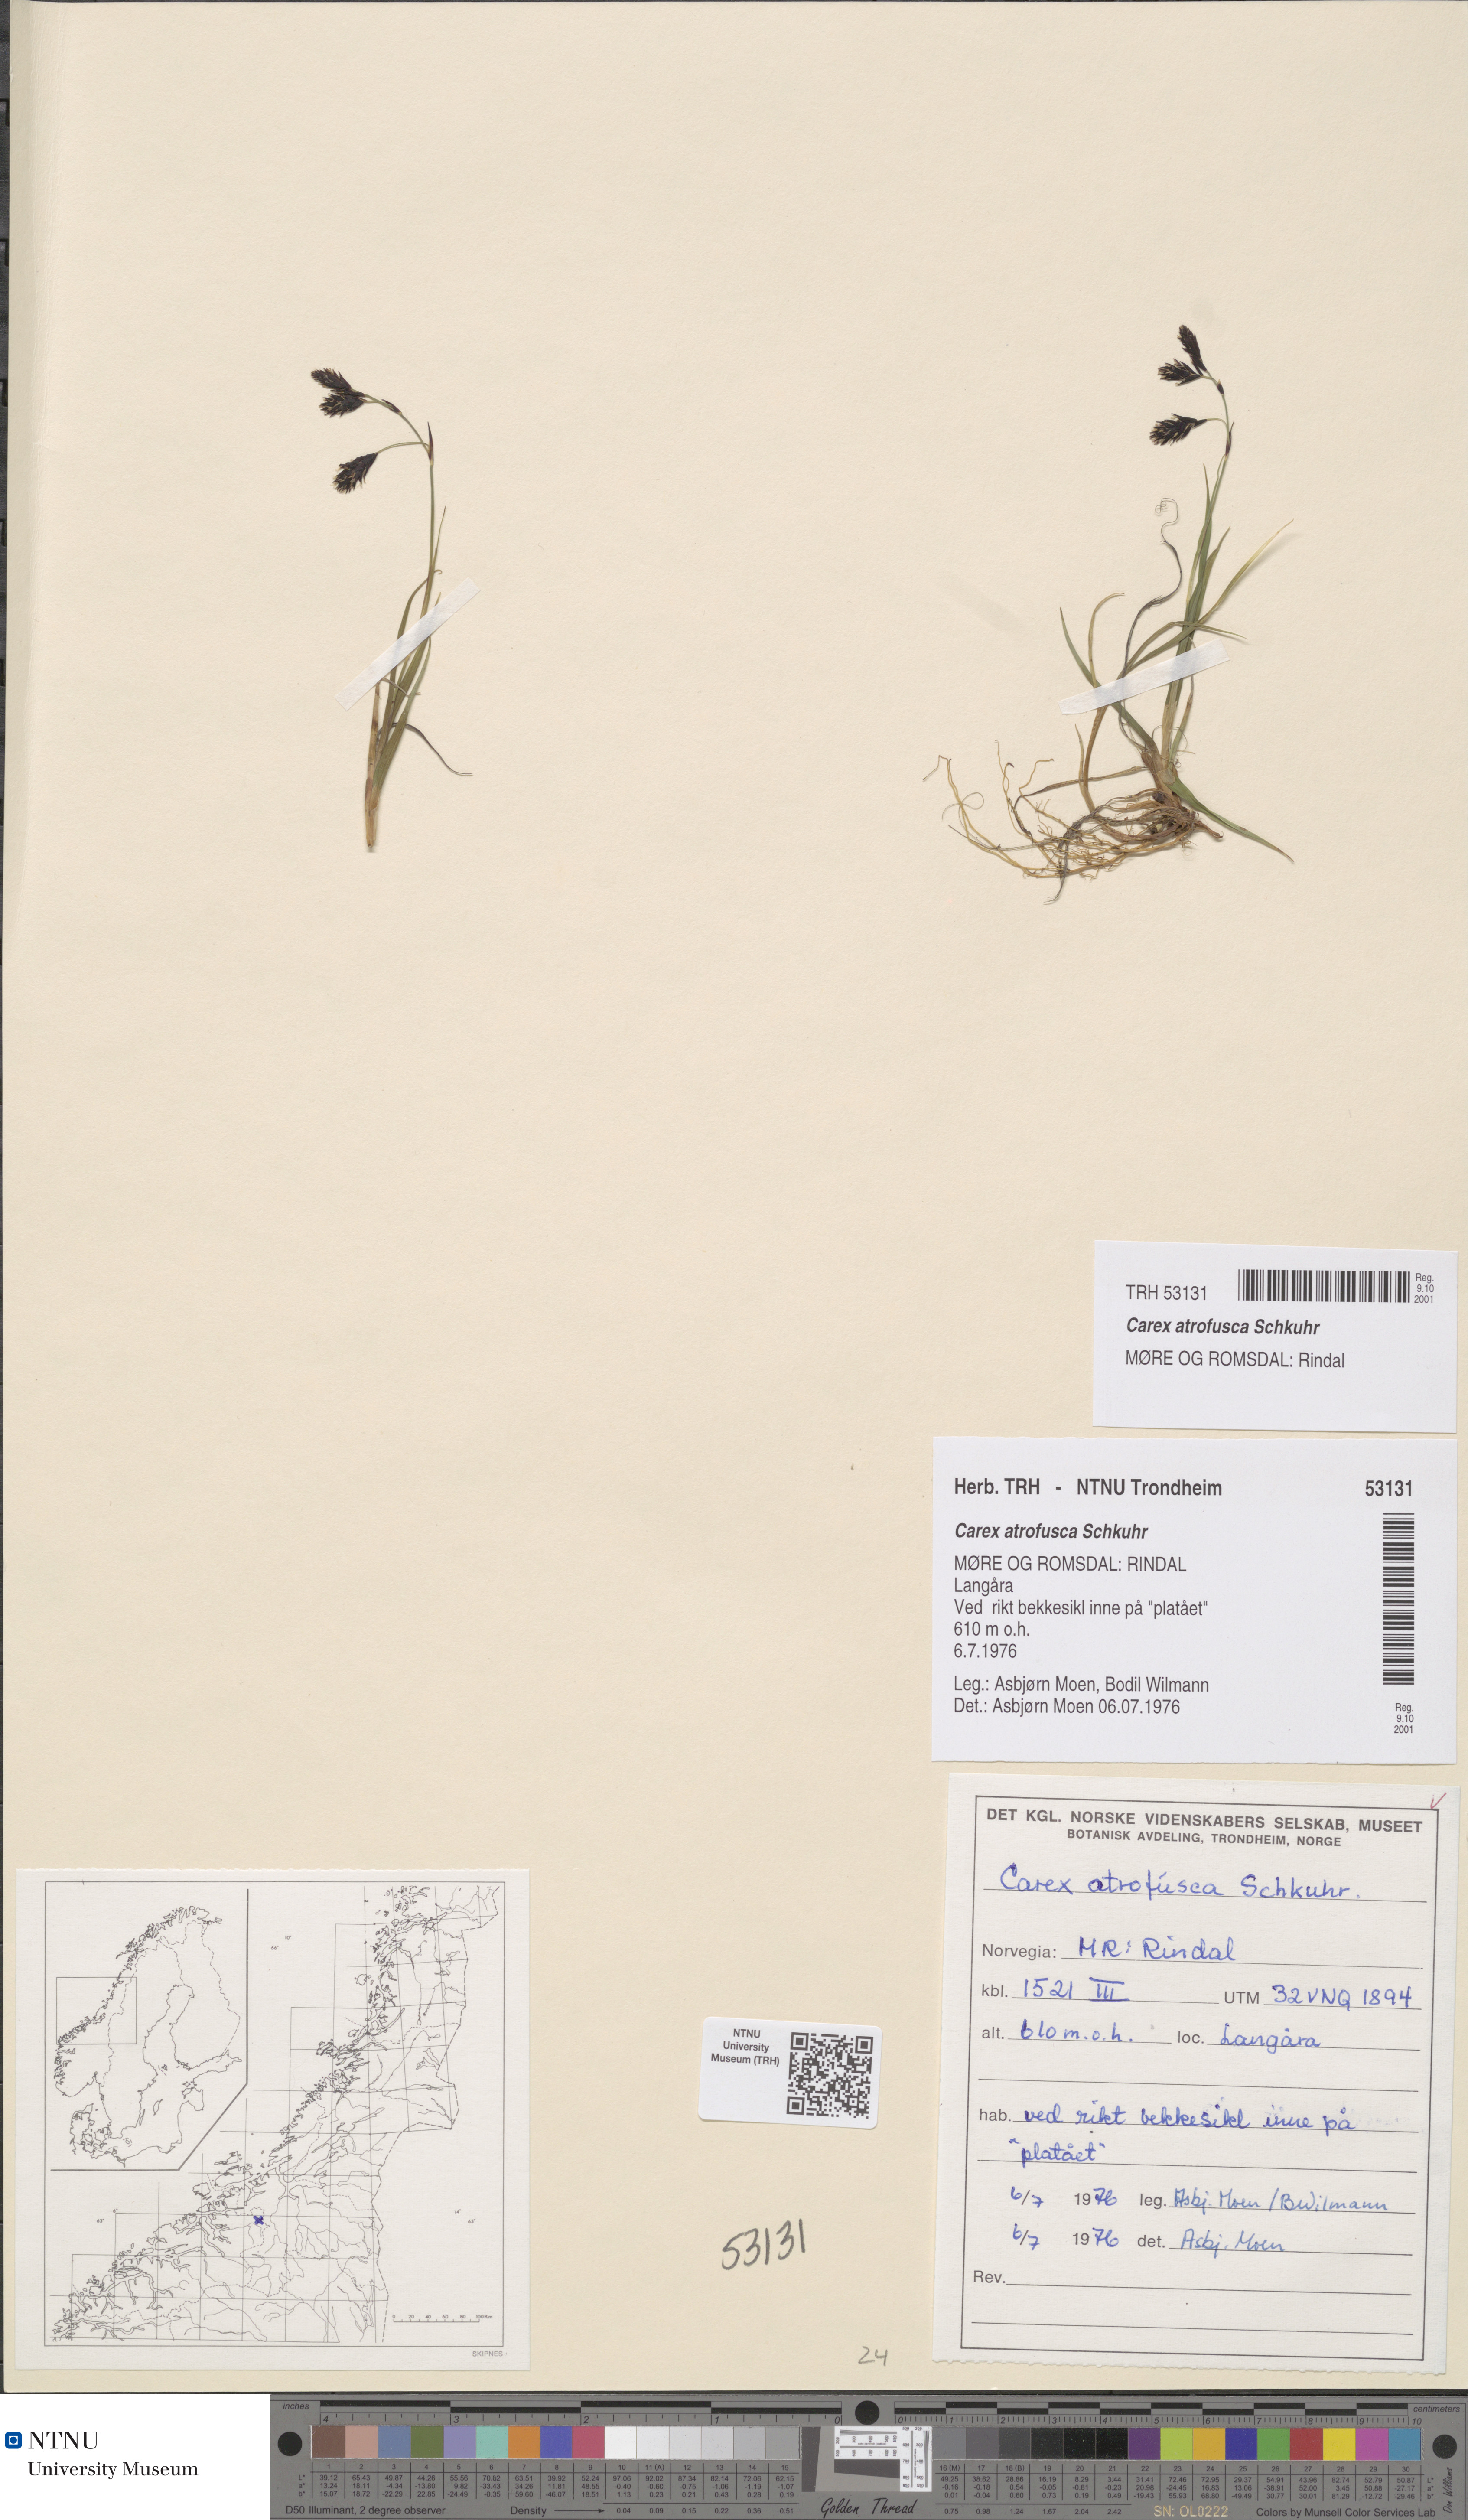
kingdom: Plantae
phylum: Tracheophyta
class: Liliopsida
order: Poales
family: Cyperaceae
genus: Carex
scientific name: Carex atrofusca
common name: Scorched alpine-sedge
